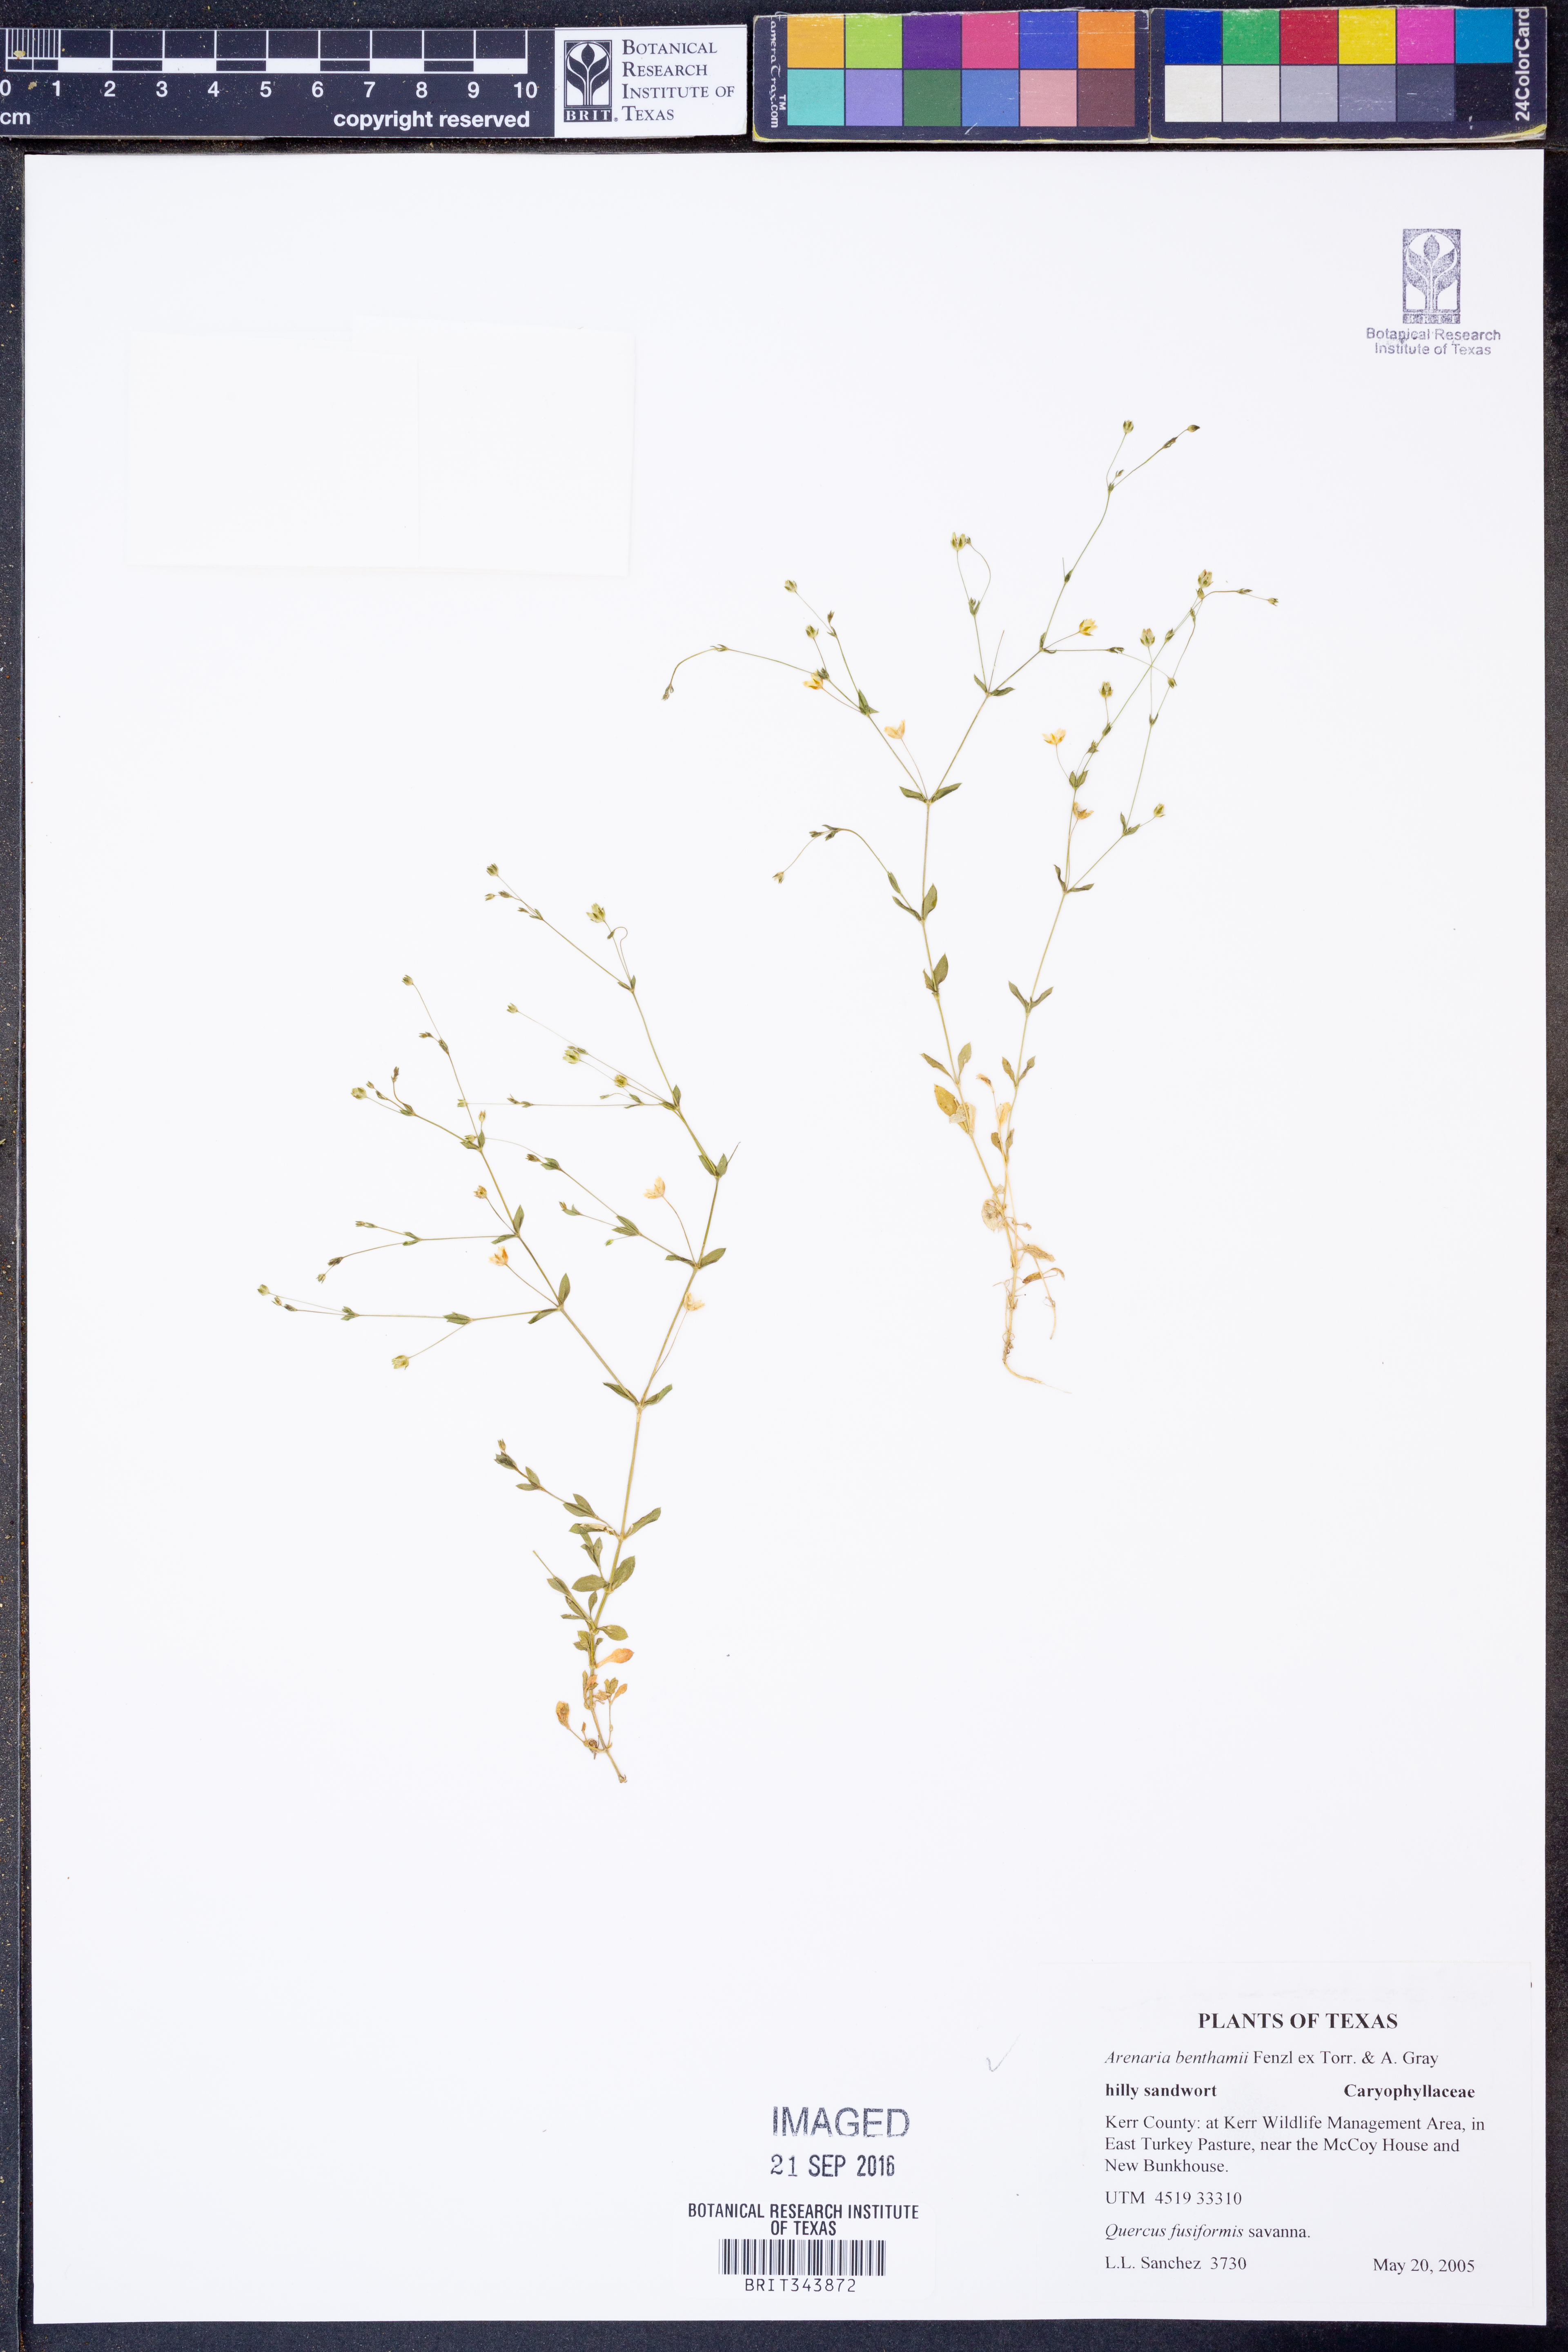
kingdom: Plantae
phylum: Tracheophyta
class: Magnoliopsida
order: Caryophyllales
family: Caryophyllaceae
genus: Arenaria
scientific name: Arenaria benthamii
